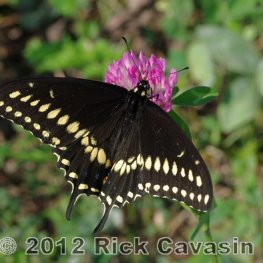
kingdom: Animalia
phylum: Arthropoda
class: Insecta
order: Lepidoptera
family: Papilionidae
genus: Papilio
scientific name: Papilio polyxenes
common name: Black Swallowtail
